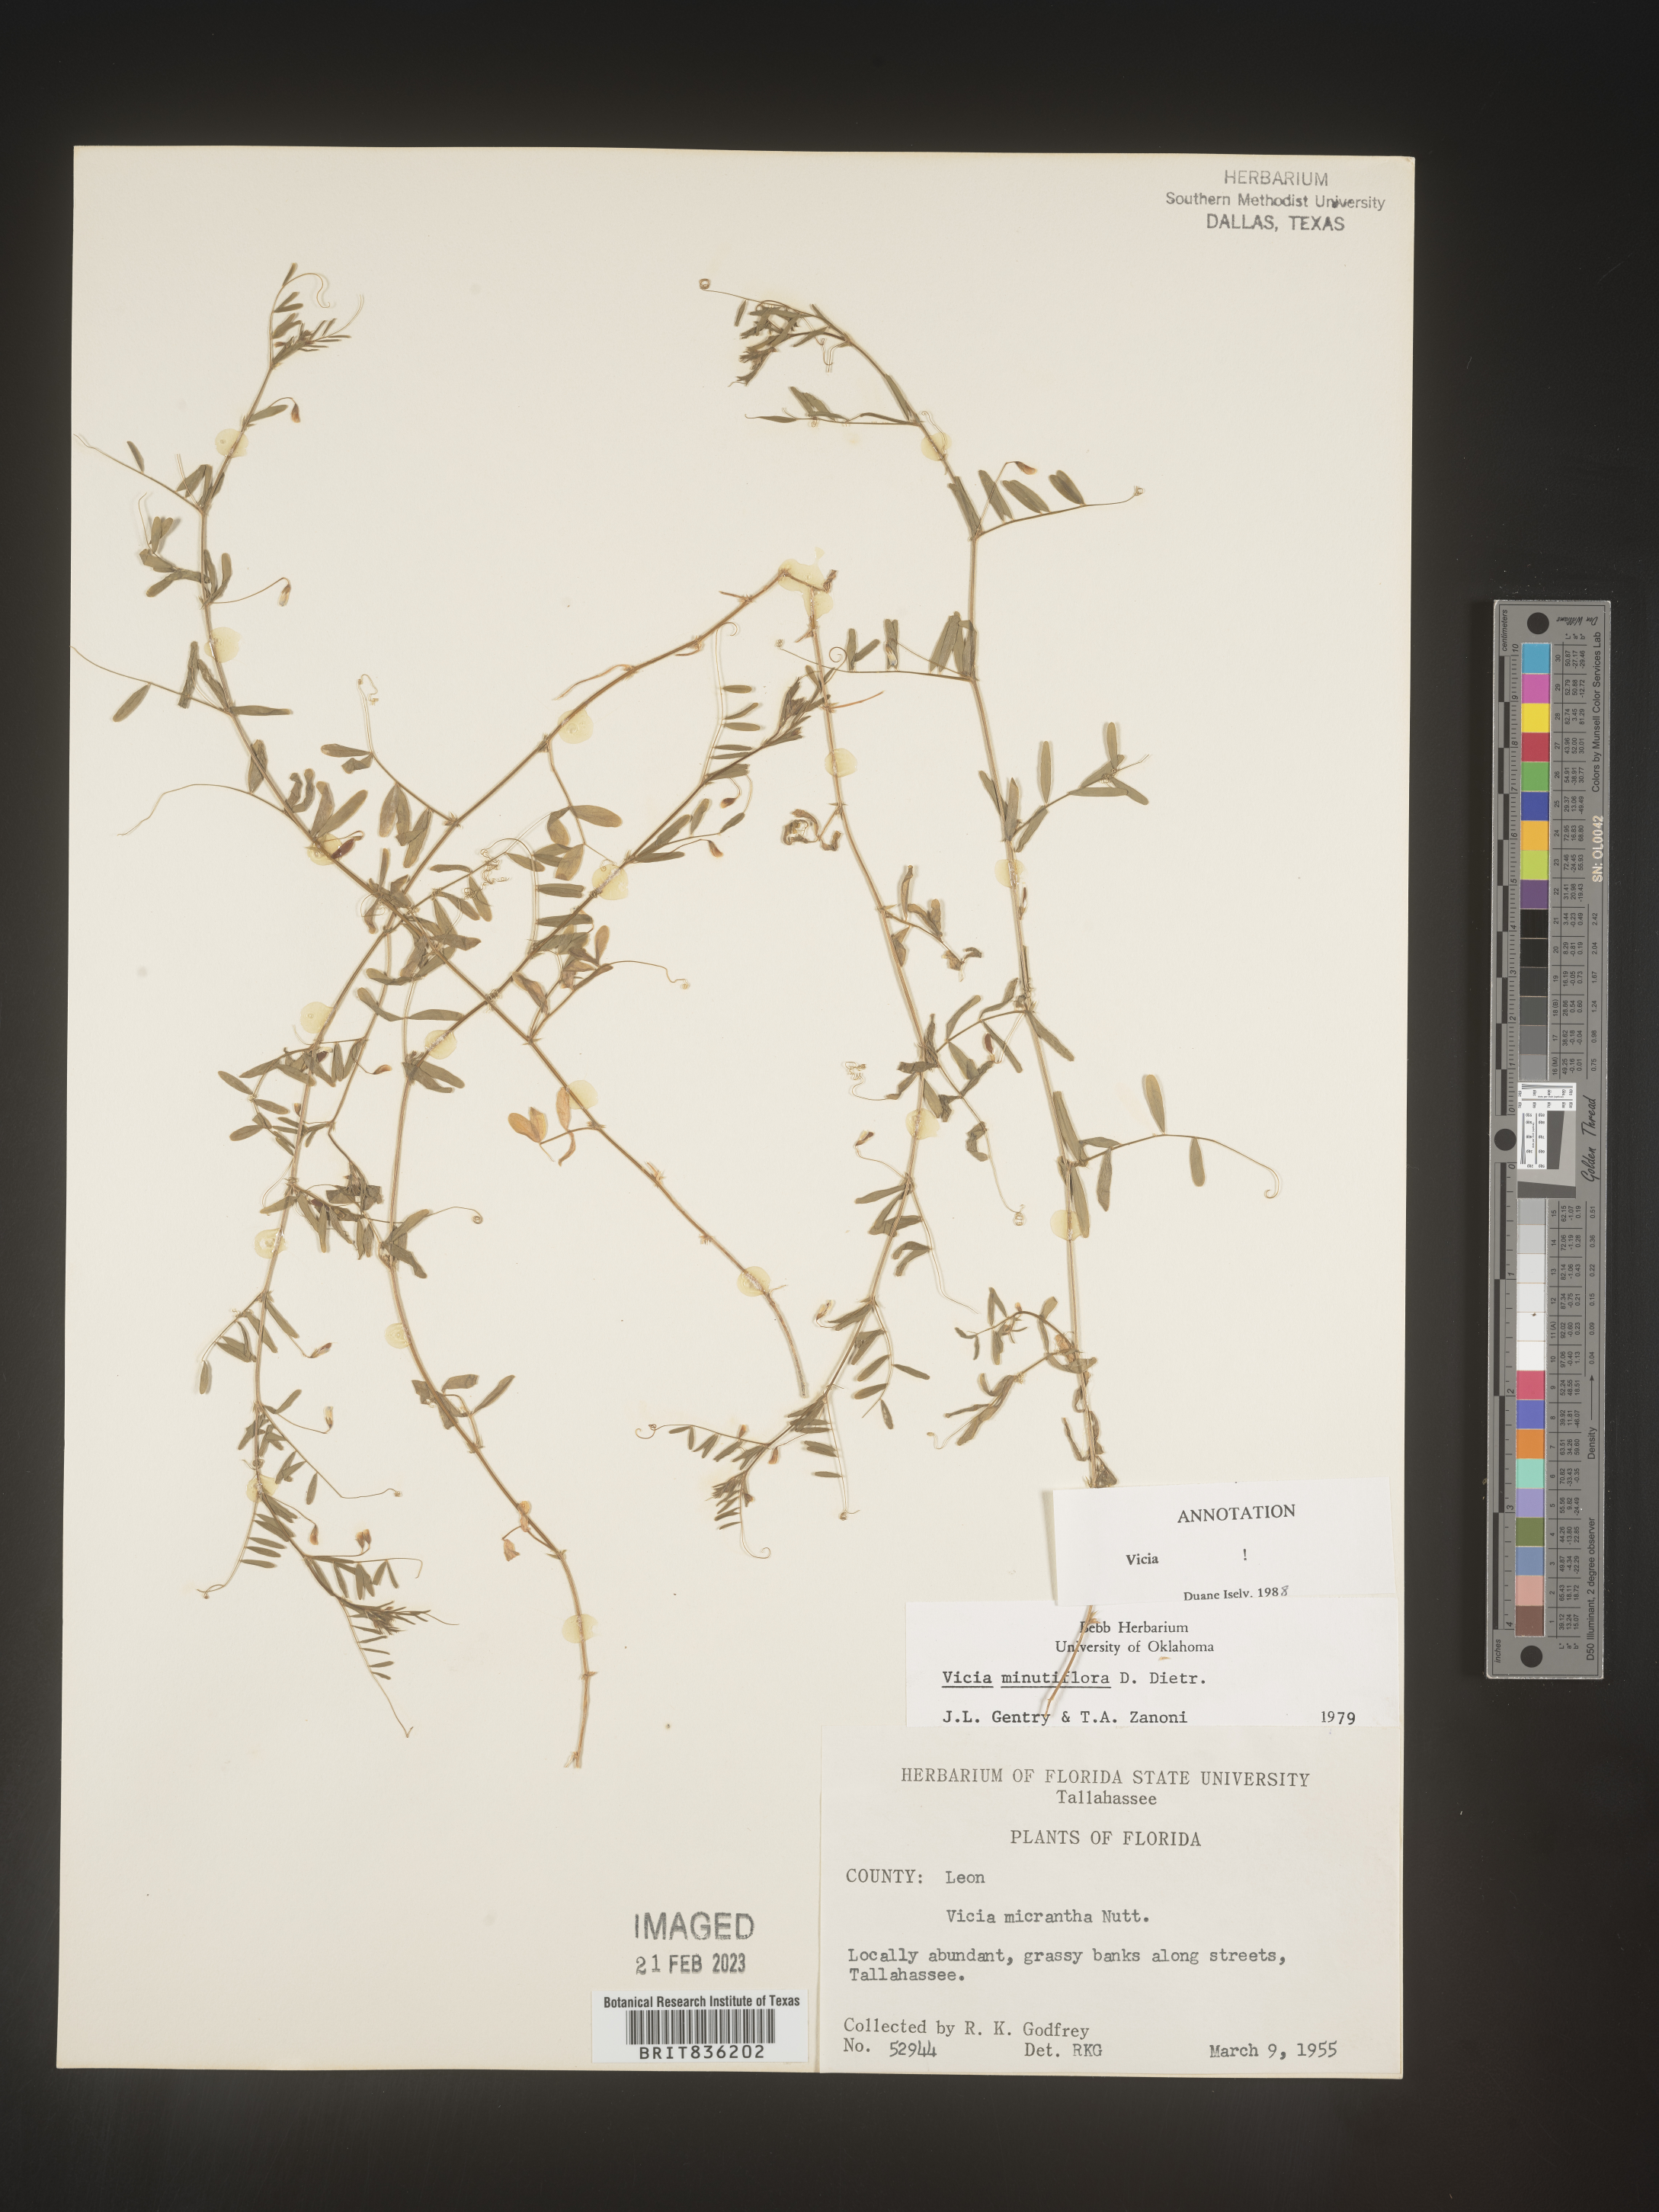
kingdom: Plantae
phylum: Tracheophyta
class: Magnoliopsida
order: Fabales
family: Fabaceae
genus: Vicia
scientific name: Vicia minutiflora
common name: Pygmy-flower vetch
